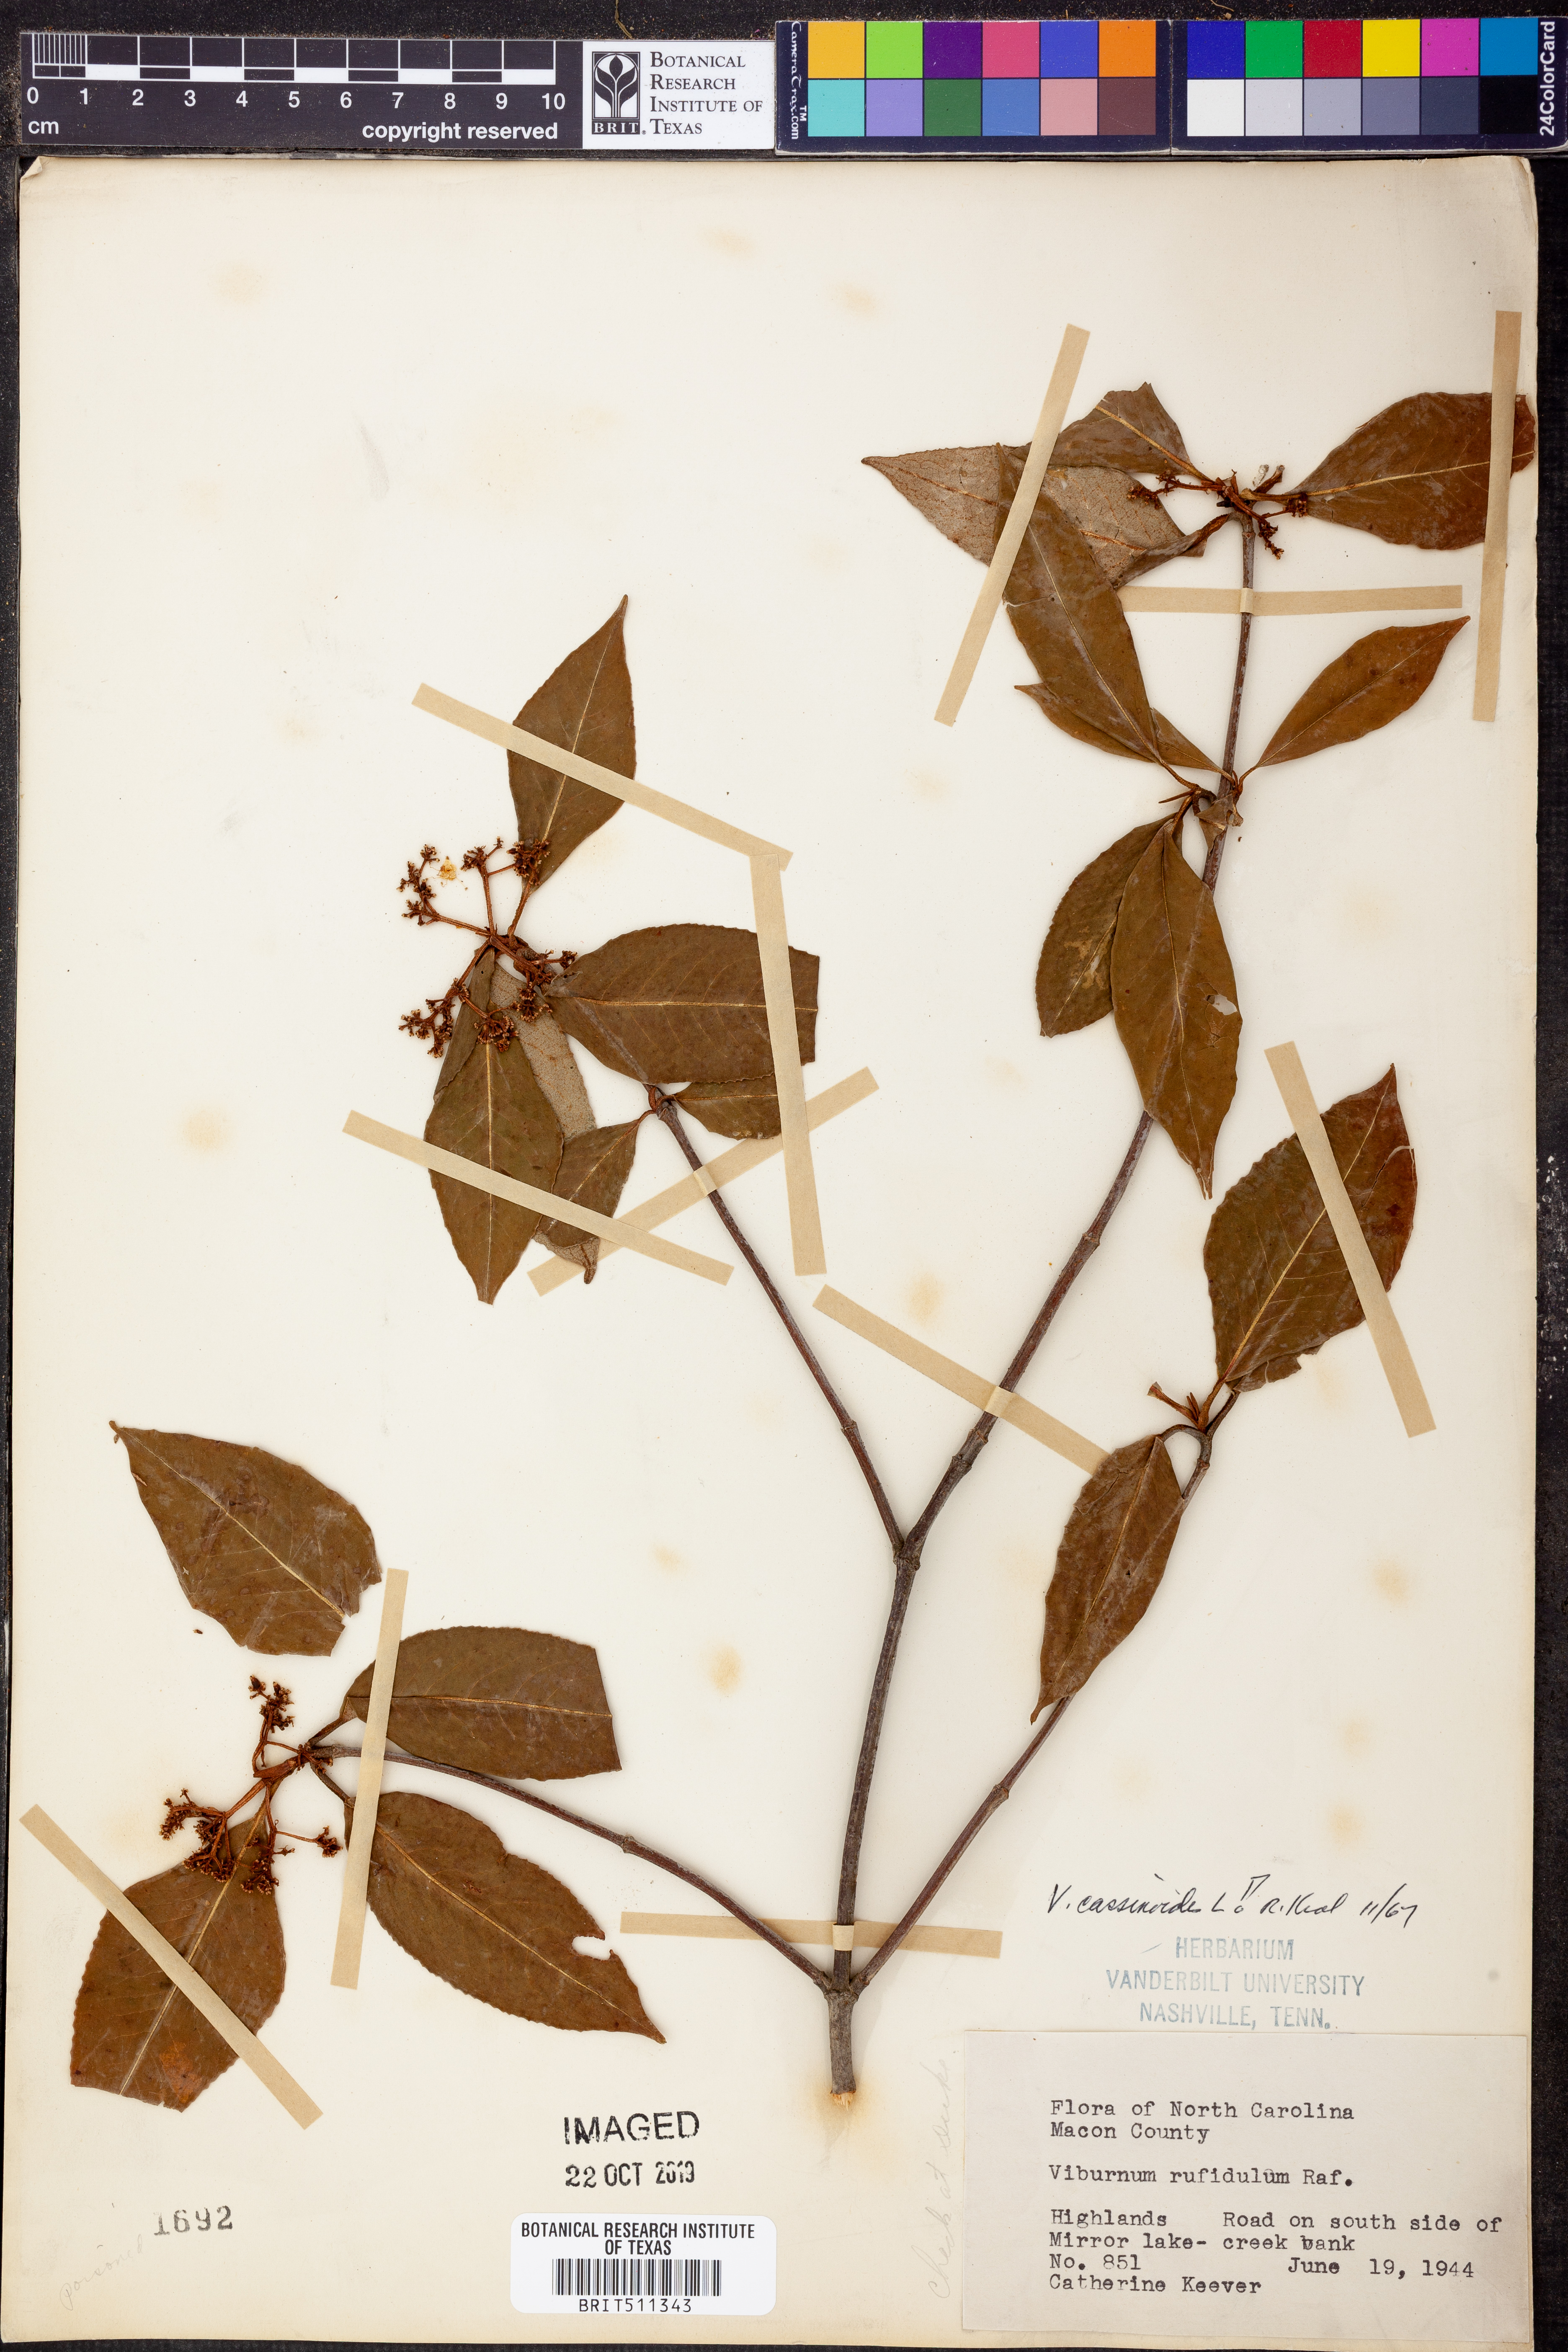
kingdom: Plantae
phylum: Tracheophyta
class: Magnoliopsida
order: Dipsacales
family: Viburnaceae
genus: Viburnum
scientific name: Viburnum cassinoides
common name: Swamp haw
